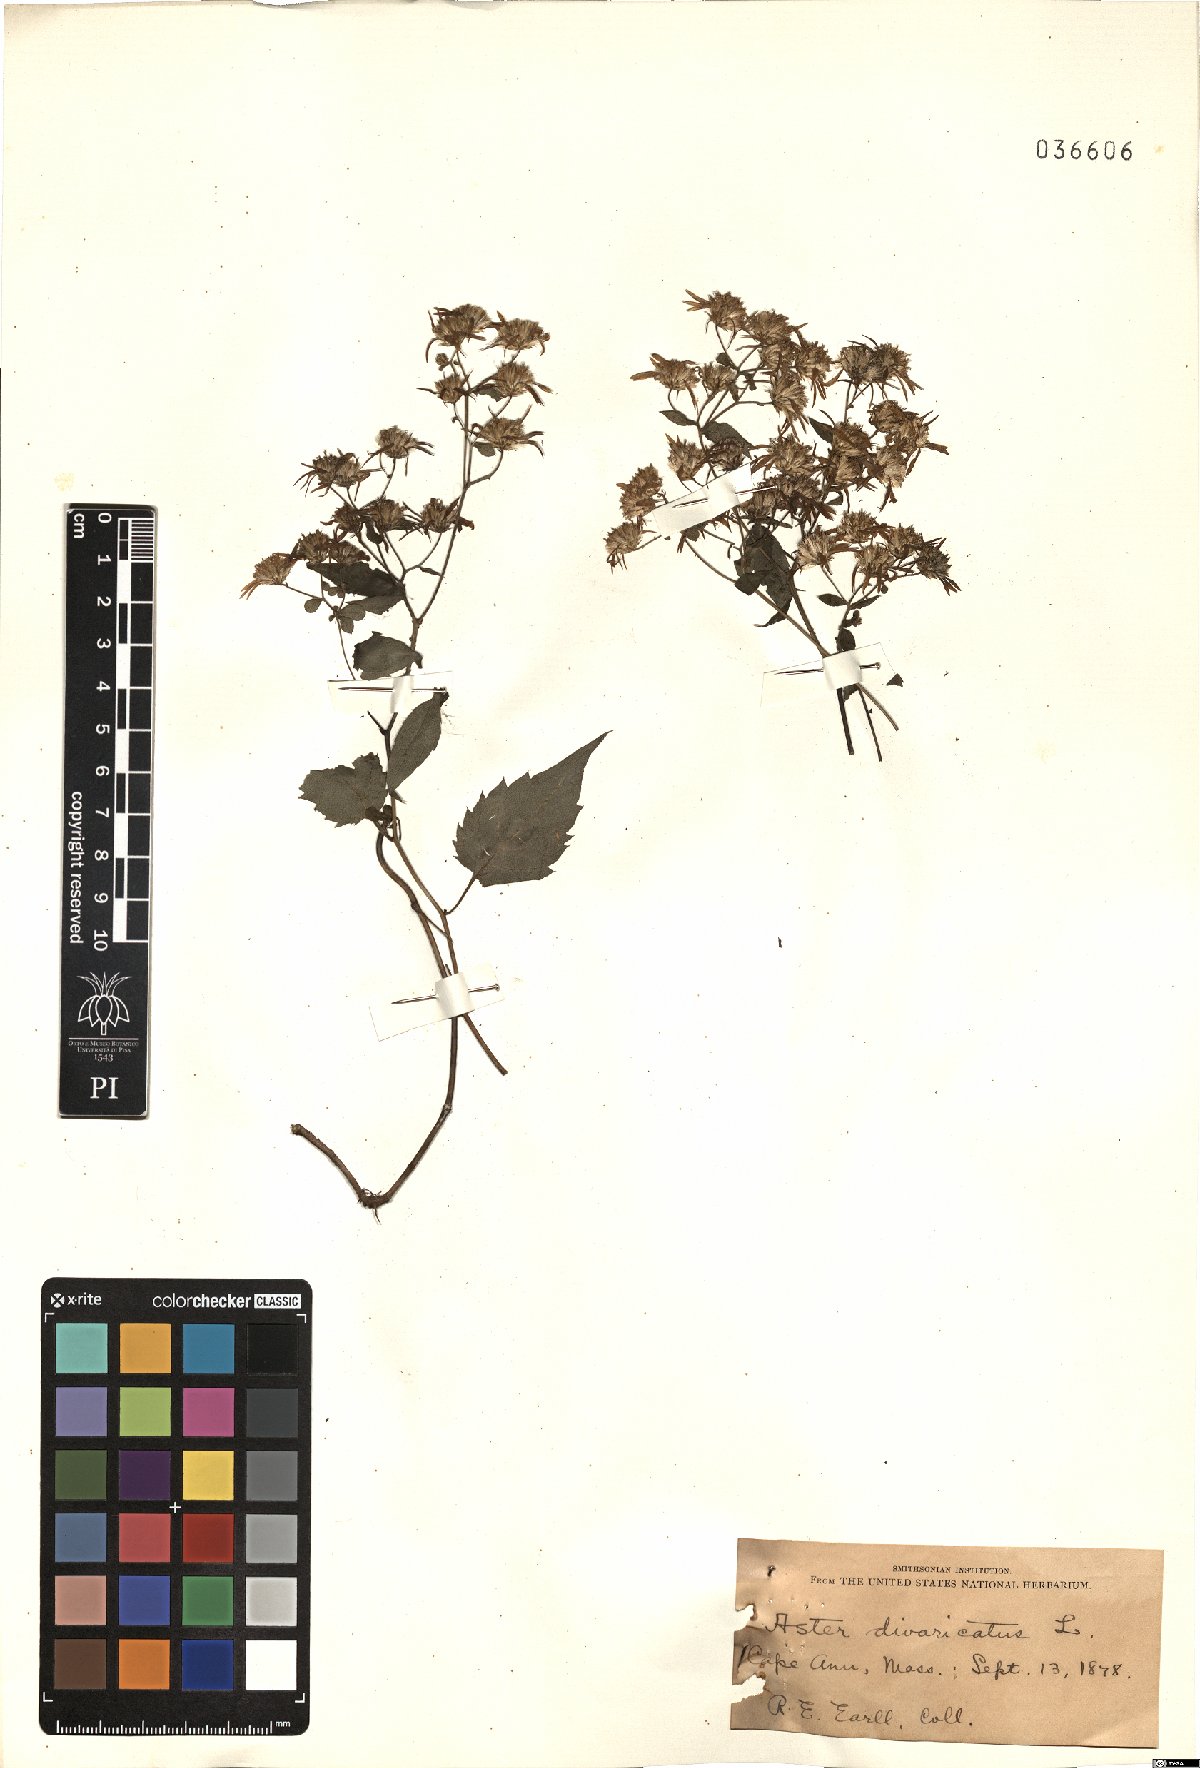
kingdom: Plantae
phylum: Tracheophyta
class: Magnoliopsida
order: Asterales
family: Asteraceae
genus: Eurybia
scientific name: Eurybia divaricata
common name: White wood aster
